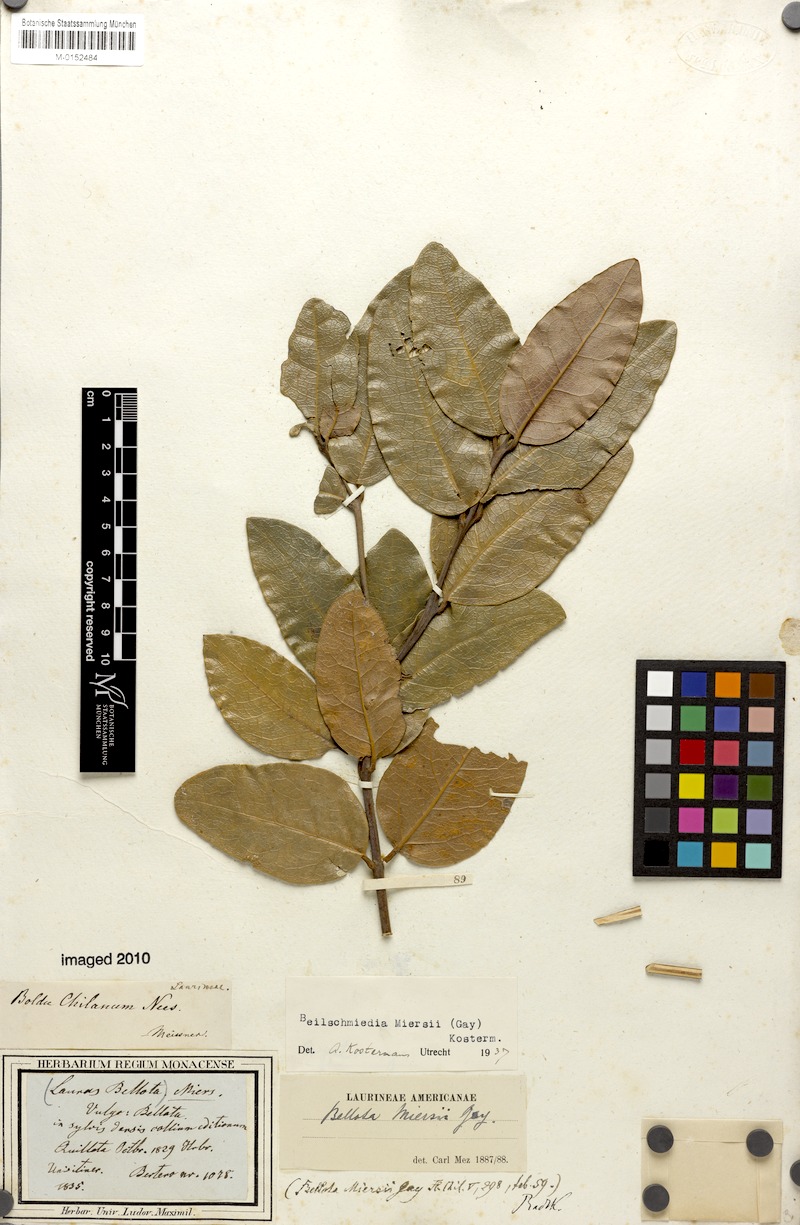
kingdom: Plantae
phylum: Tracheophyta
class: Magnoliopsida
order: Laurales
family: Lauraceae
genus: Beilschmiedia
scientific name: Beilschmiedia miersii
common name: Bellota
